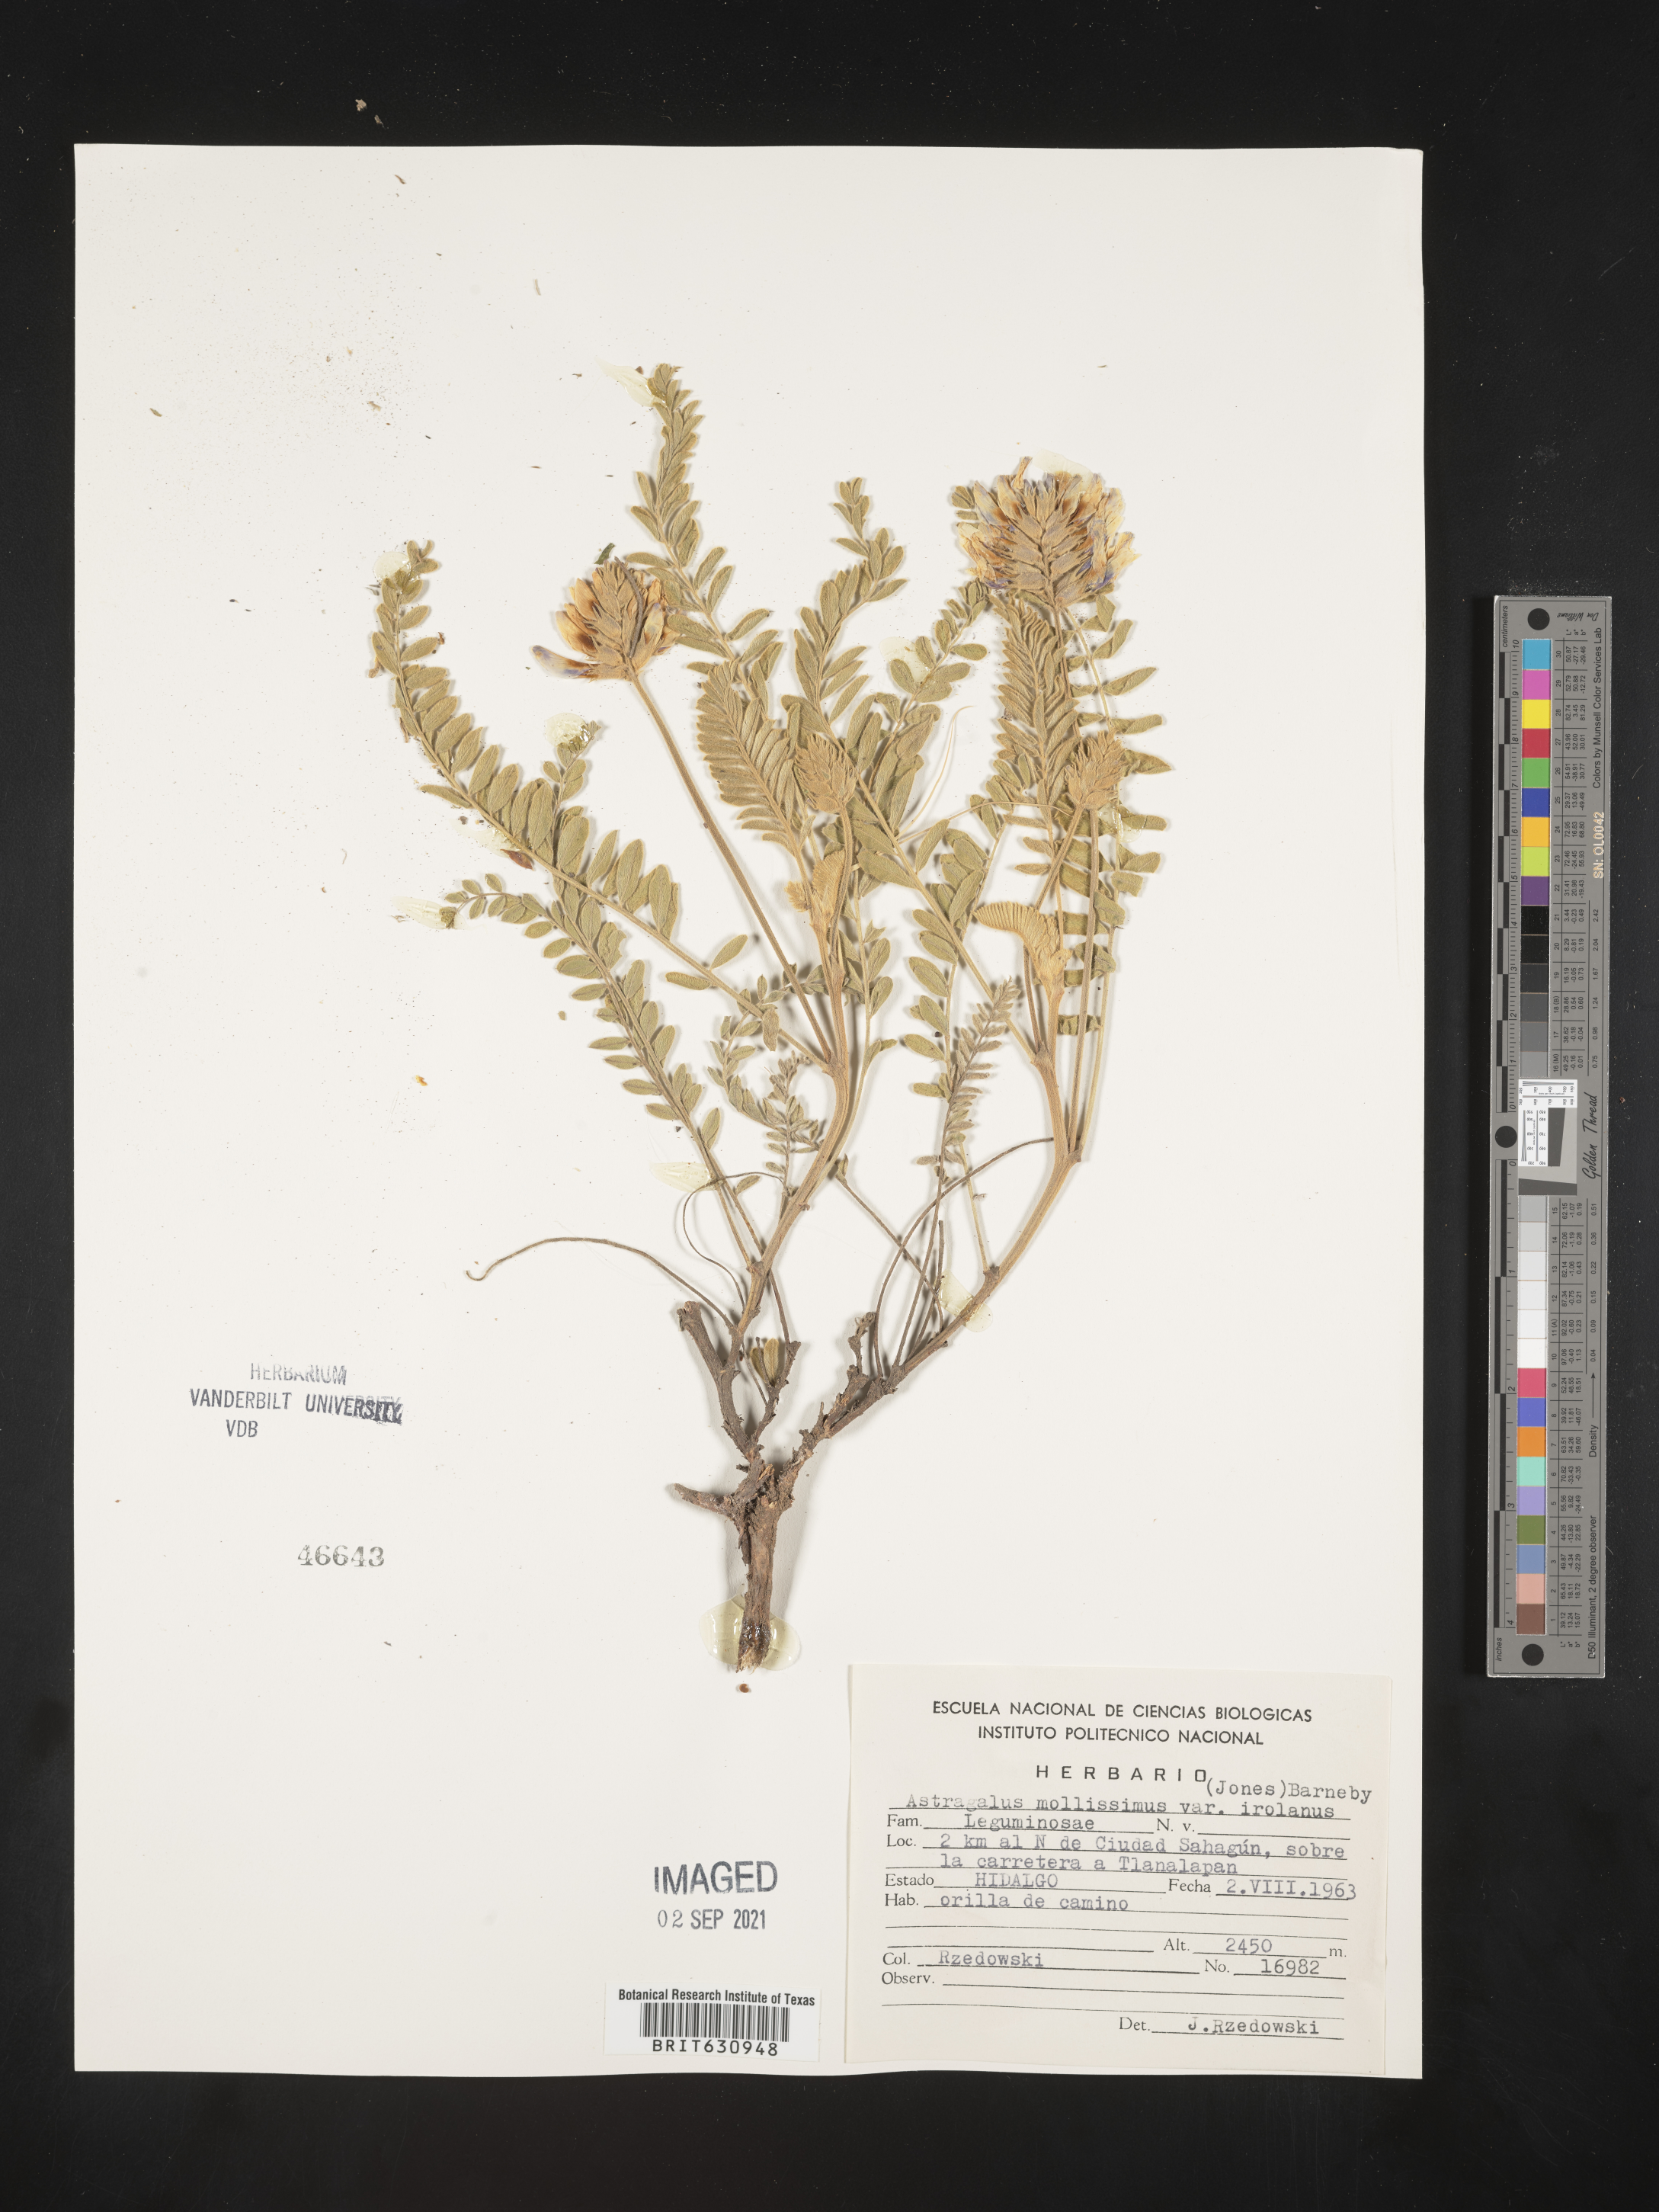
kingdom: Plantae
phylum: Tracheophyta
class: Magnoliopsida
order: Fabales
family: Fabaceae
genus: Astragalus
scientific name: Astragalus
